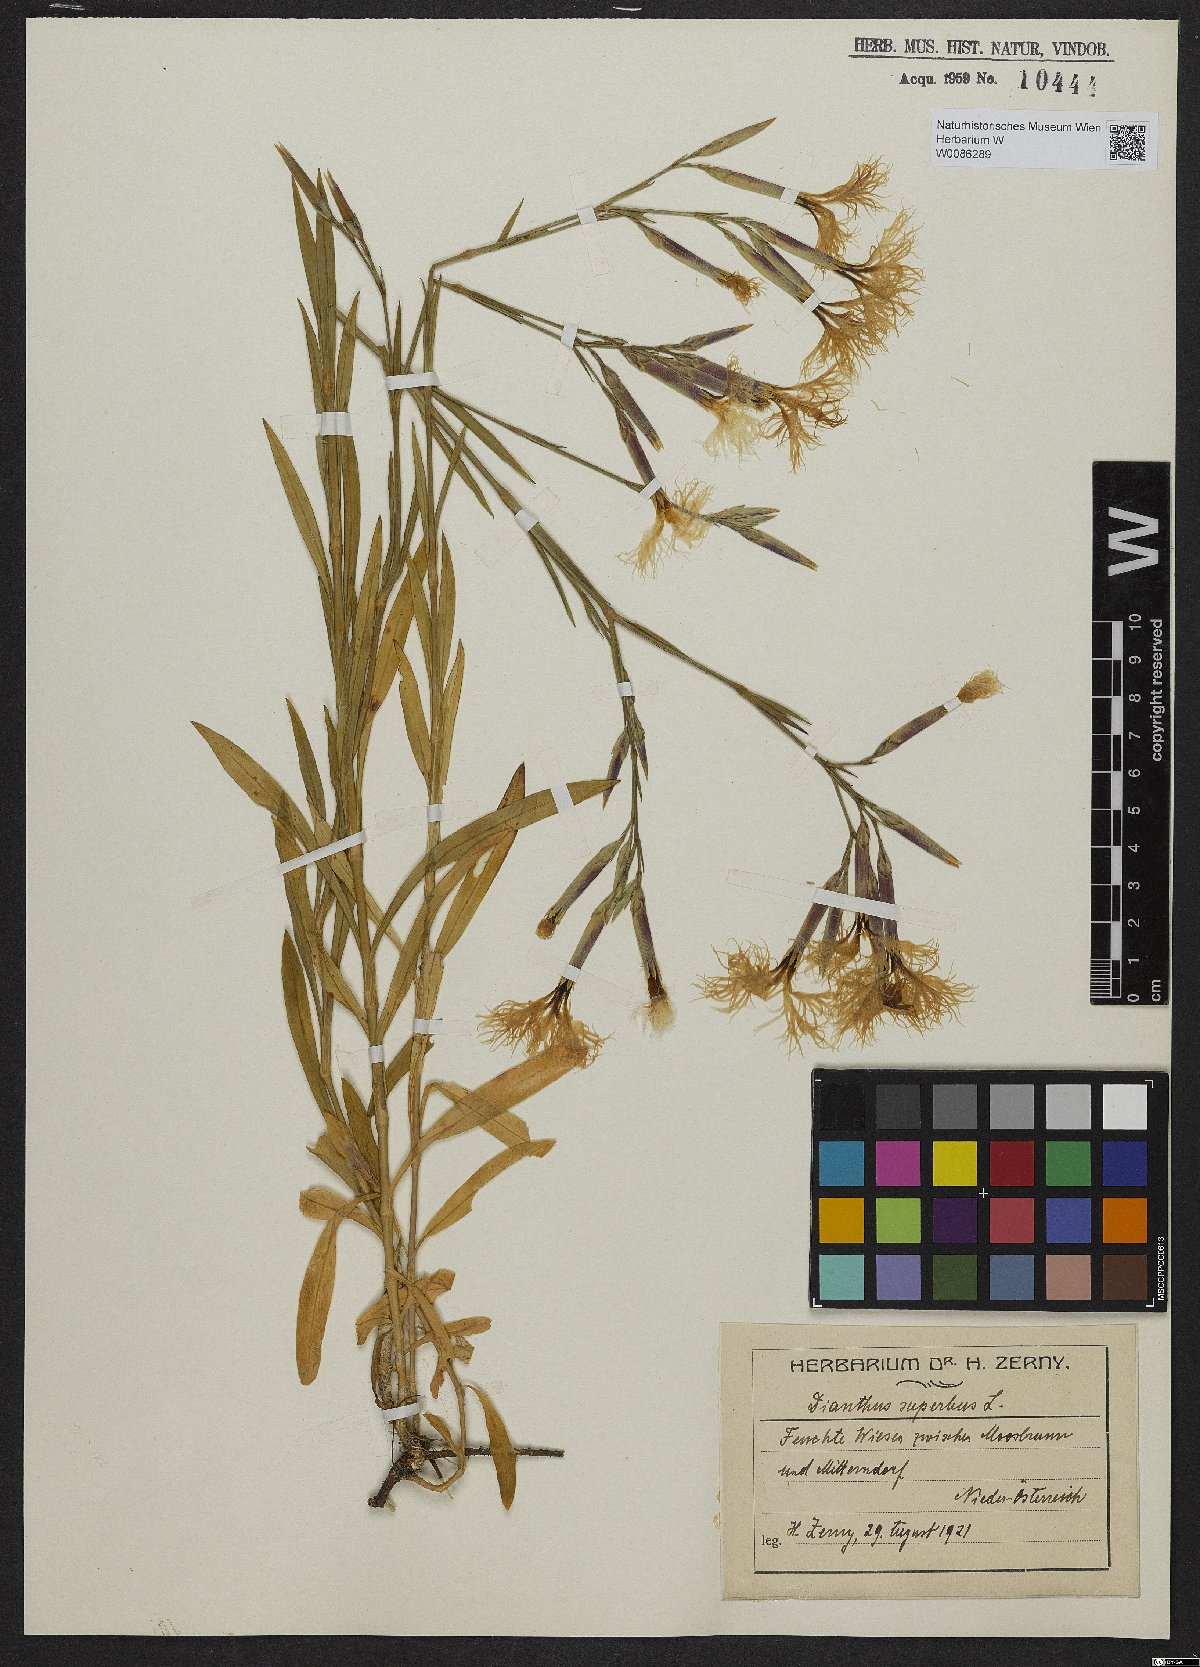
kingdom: Plantae
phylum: Tracheophyta
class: Magnoliopsida
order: Caryophyllales
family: Caryophyllaceae
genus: Dianthus
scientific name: Dianthus superbus
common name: Fringed pink
